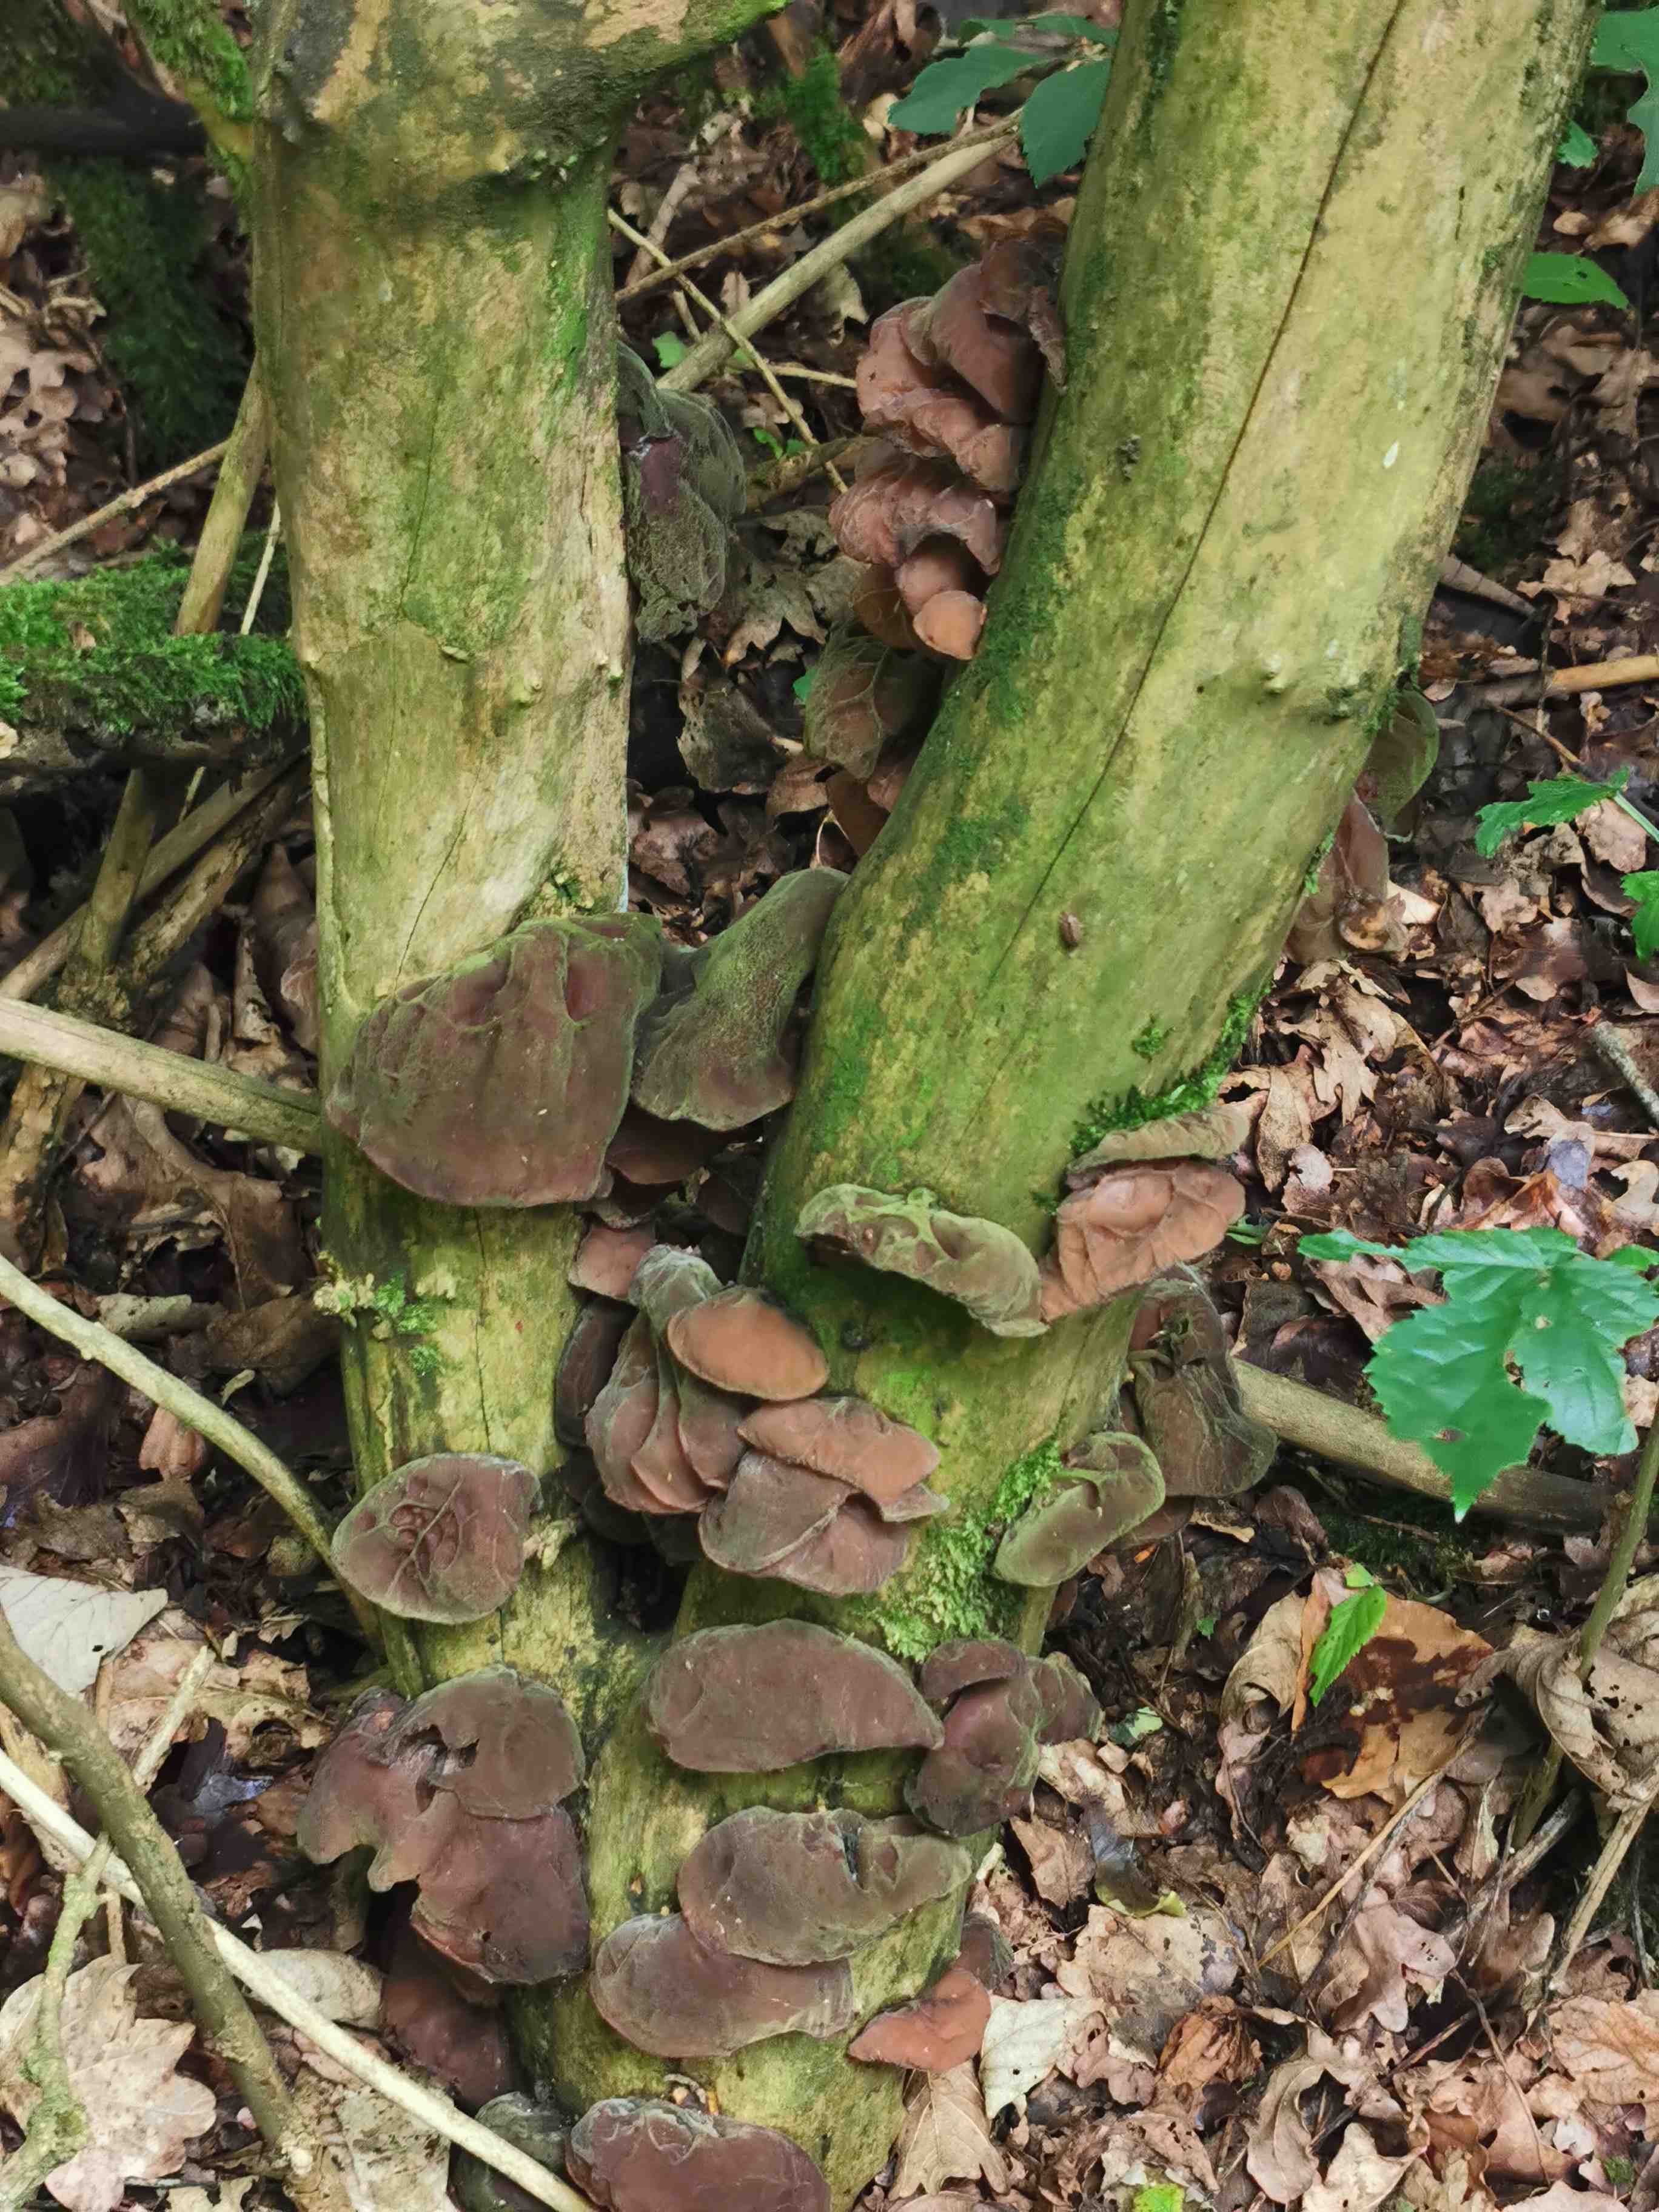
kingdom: Fungi
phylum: Basidiomycota
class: Agaricomycetes
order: Auriculariales
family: Auriculariaceae
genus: Auricularia
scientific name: Auricularia auricula-judae
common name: almindelig judasøre
